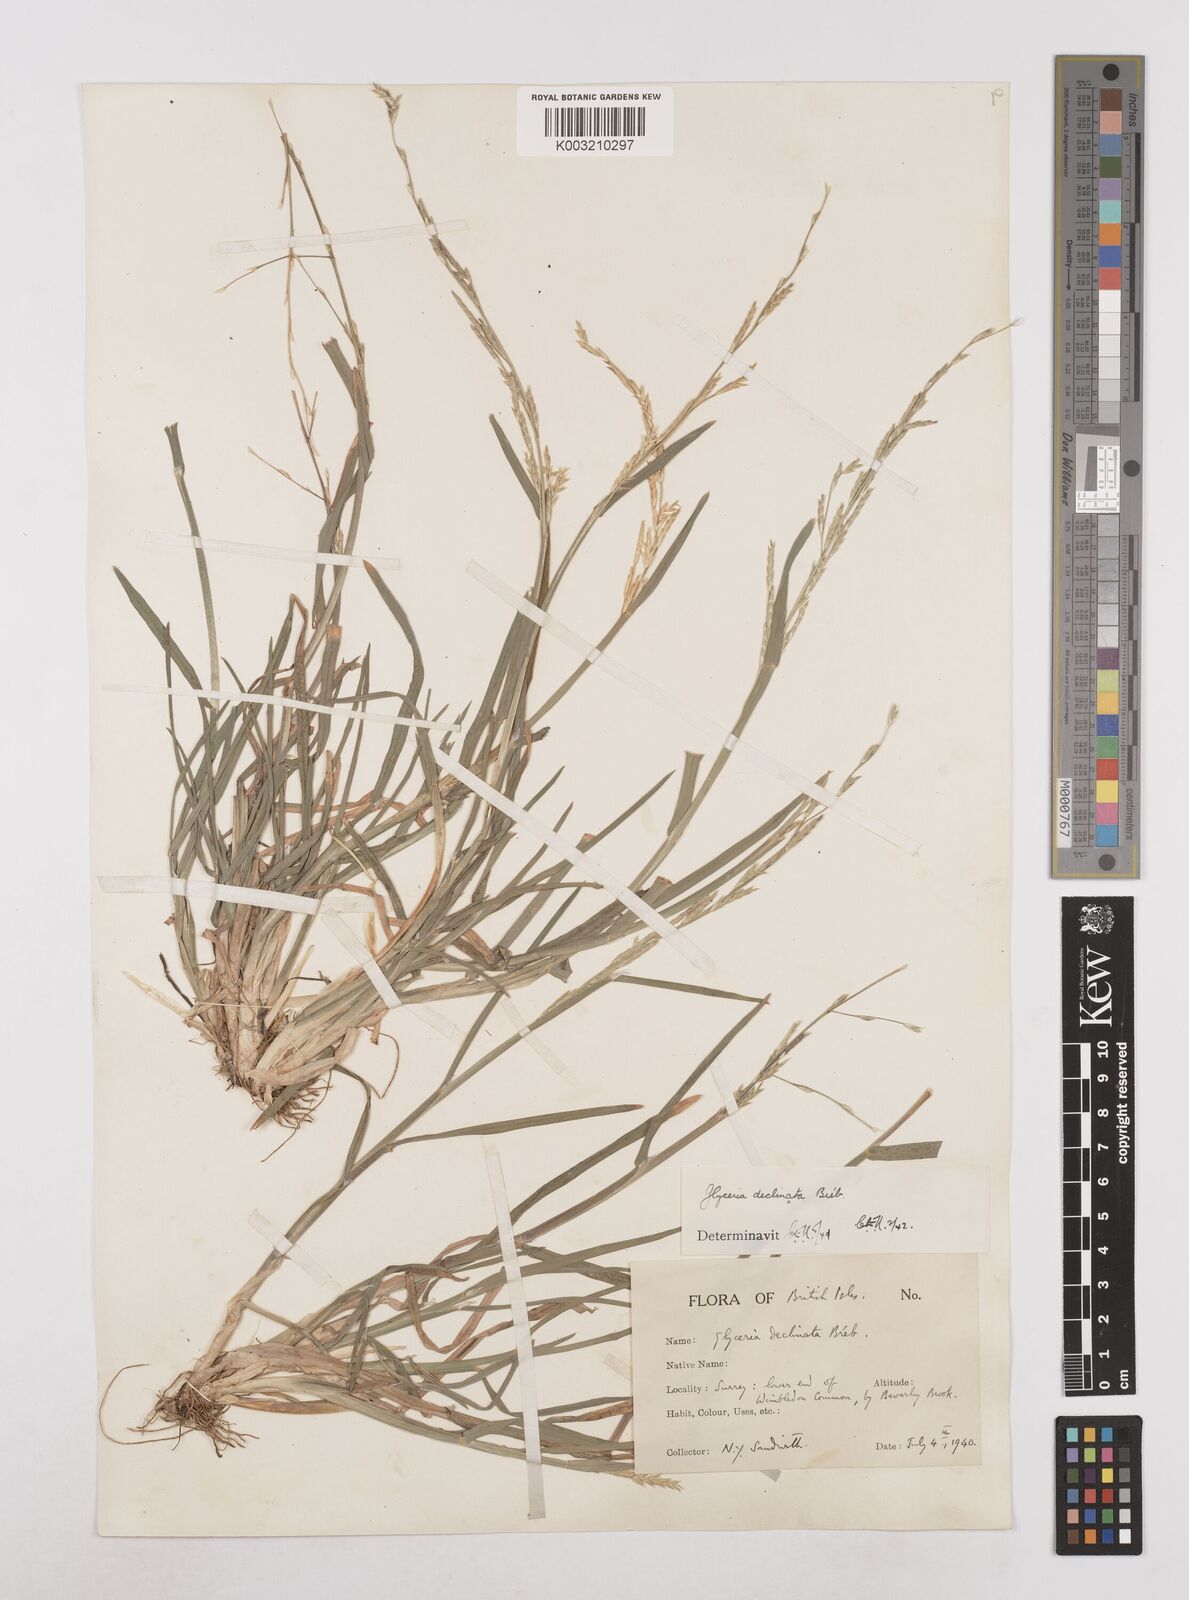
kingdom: Plantae
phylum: Tracheophyta
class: Liliopsida
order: Poales
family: Poaceae
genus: Glyceria
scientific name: Glyceria declinata
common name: Small sweet-grass
